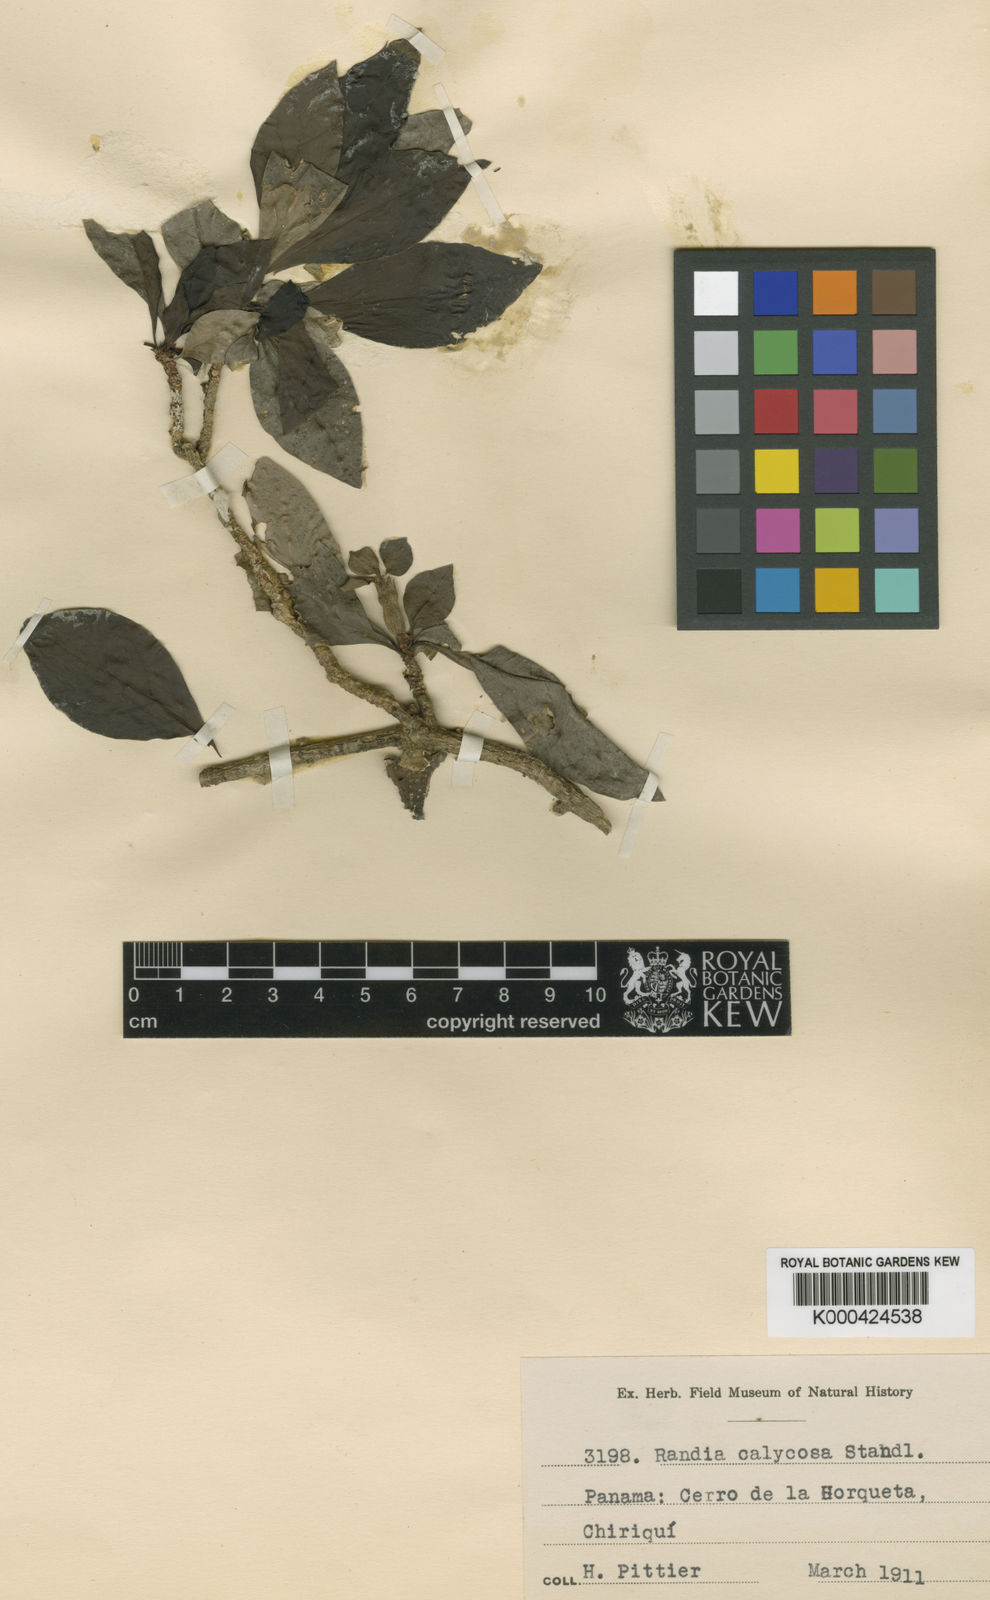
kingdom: Plantae
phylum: Tracheophyta
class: Magnoliopsida
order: Gentianales
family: Rubiaceae
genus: Randia
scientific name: Randia calycosa
